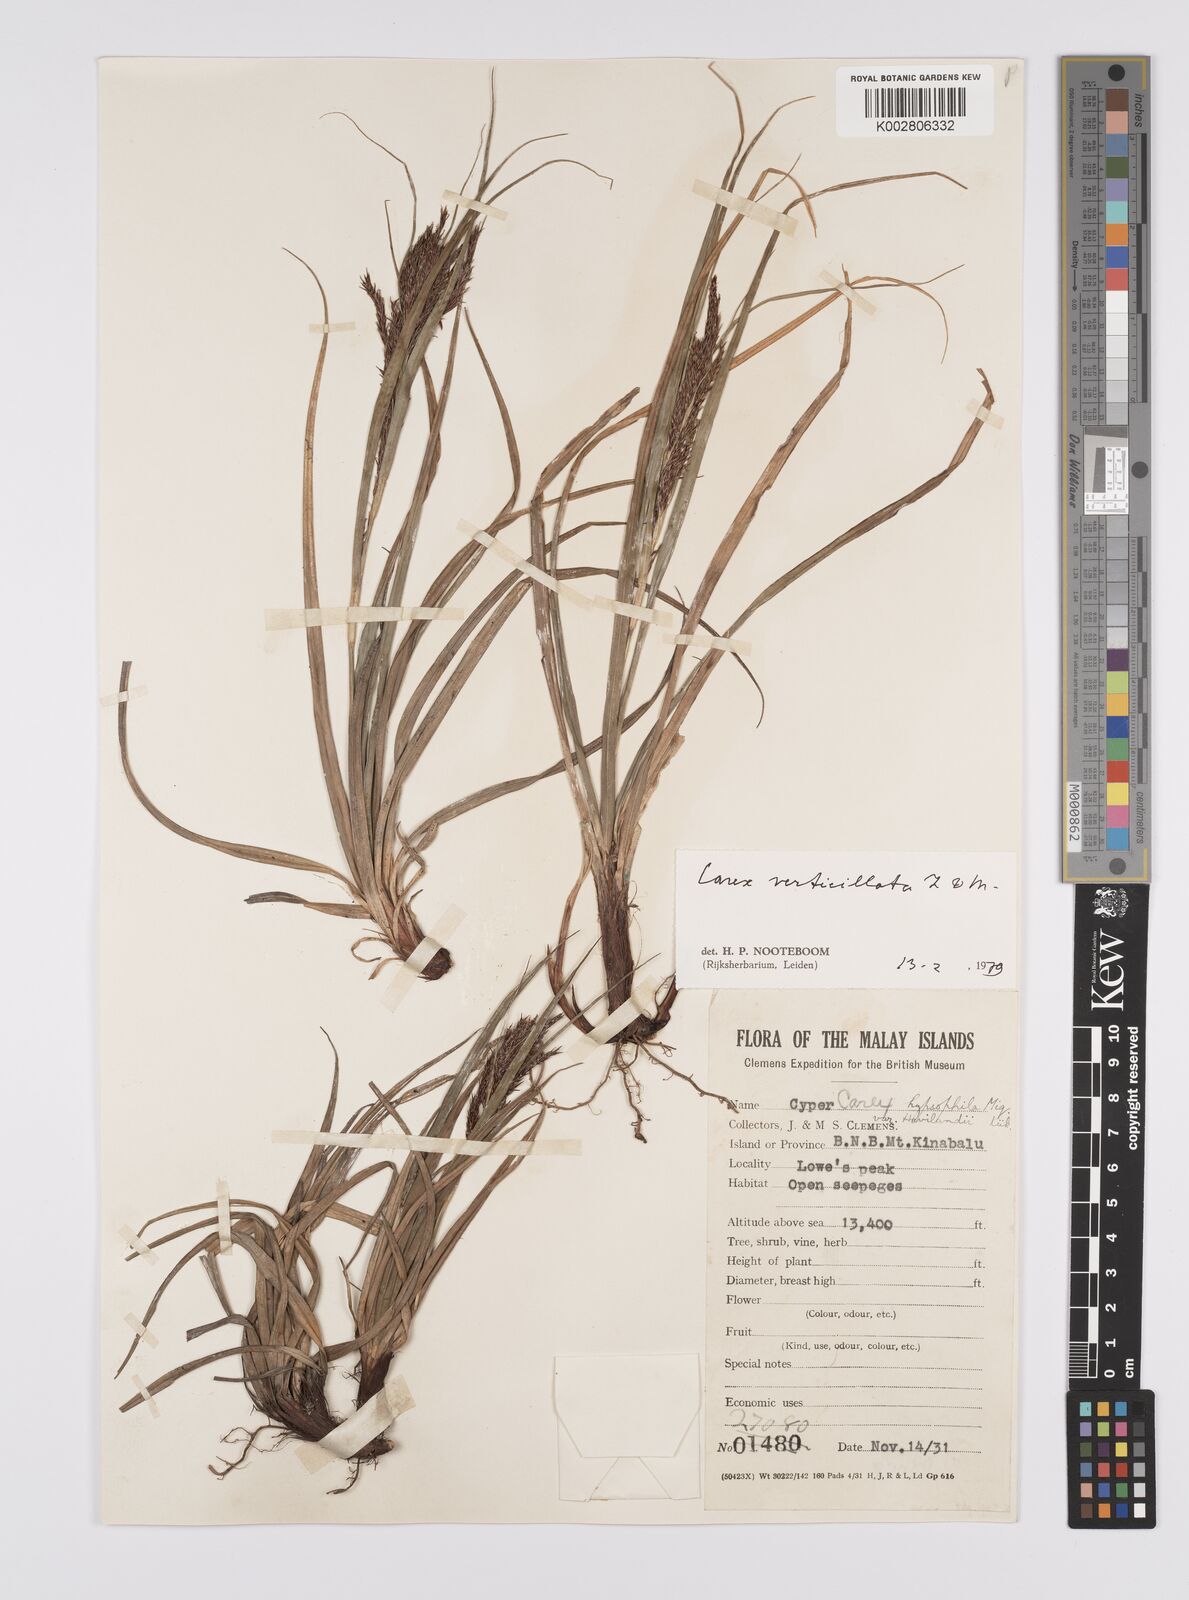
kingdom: Plantae
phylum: Tracheophyta
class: Liliopsida
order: Poales
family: Cyperaceae
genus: Carex
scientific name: Carex verticillata
